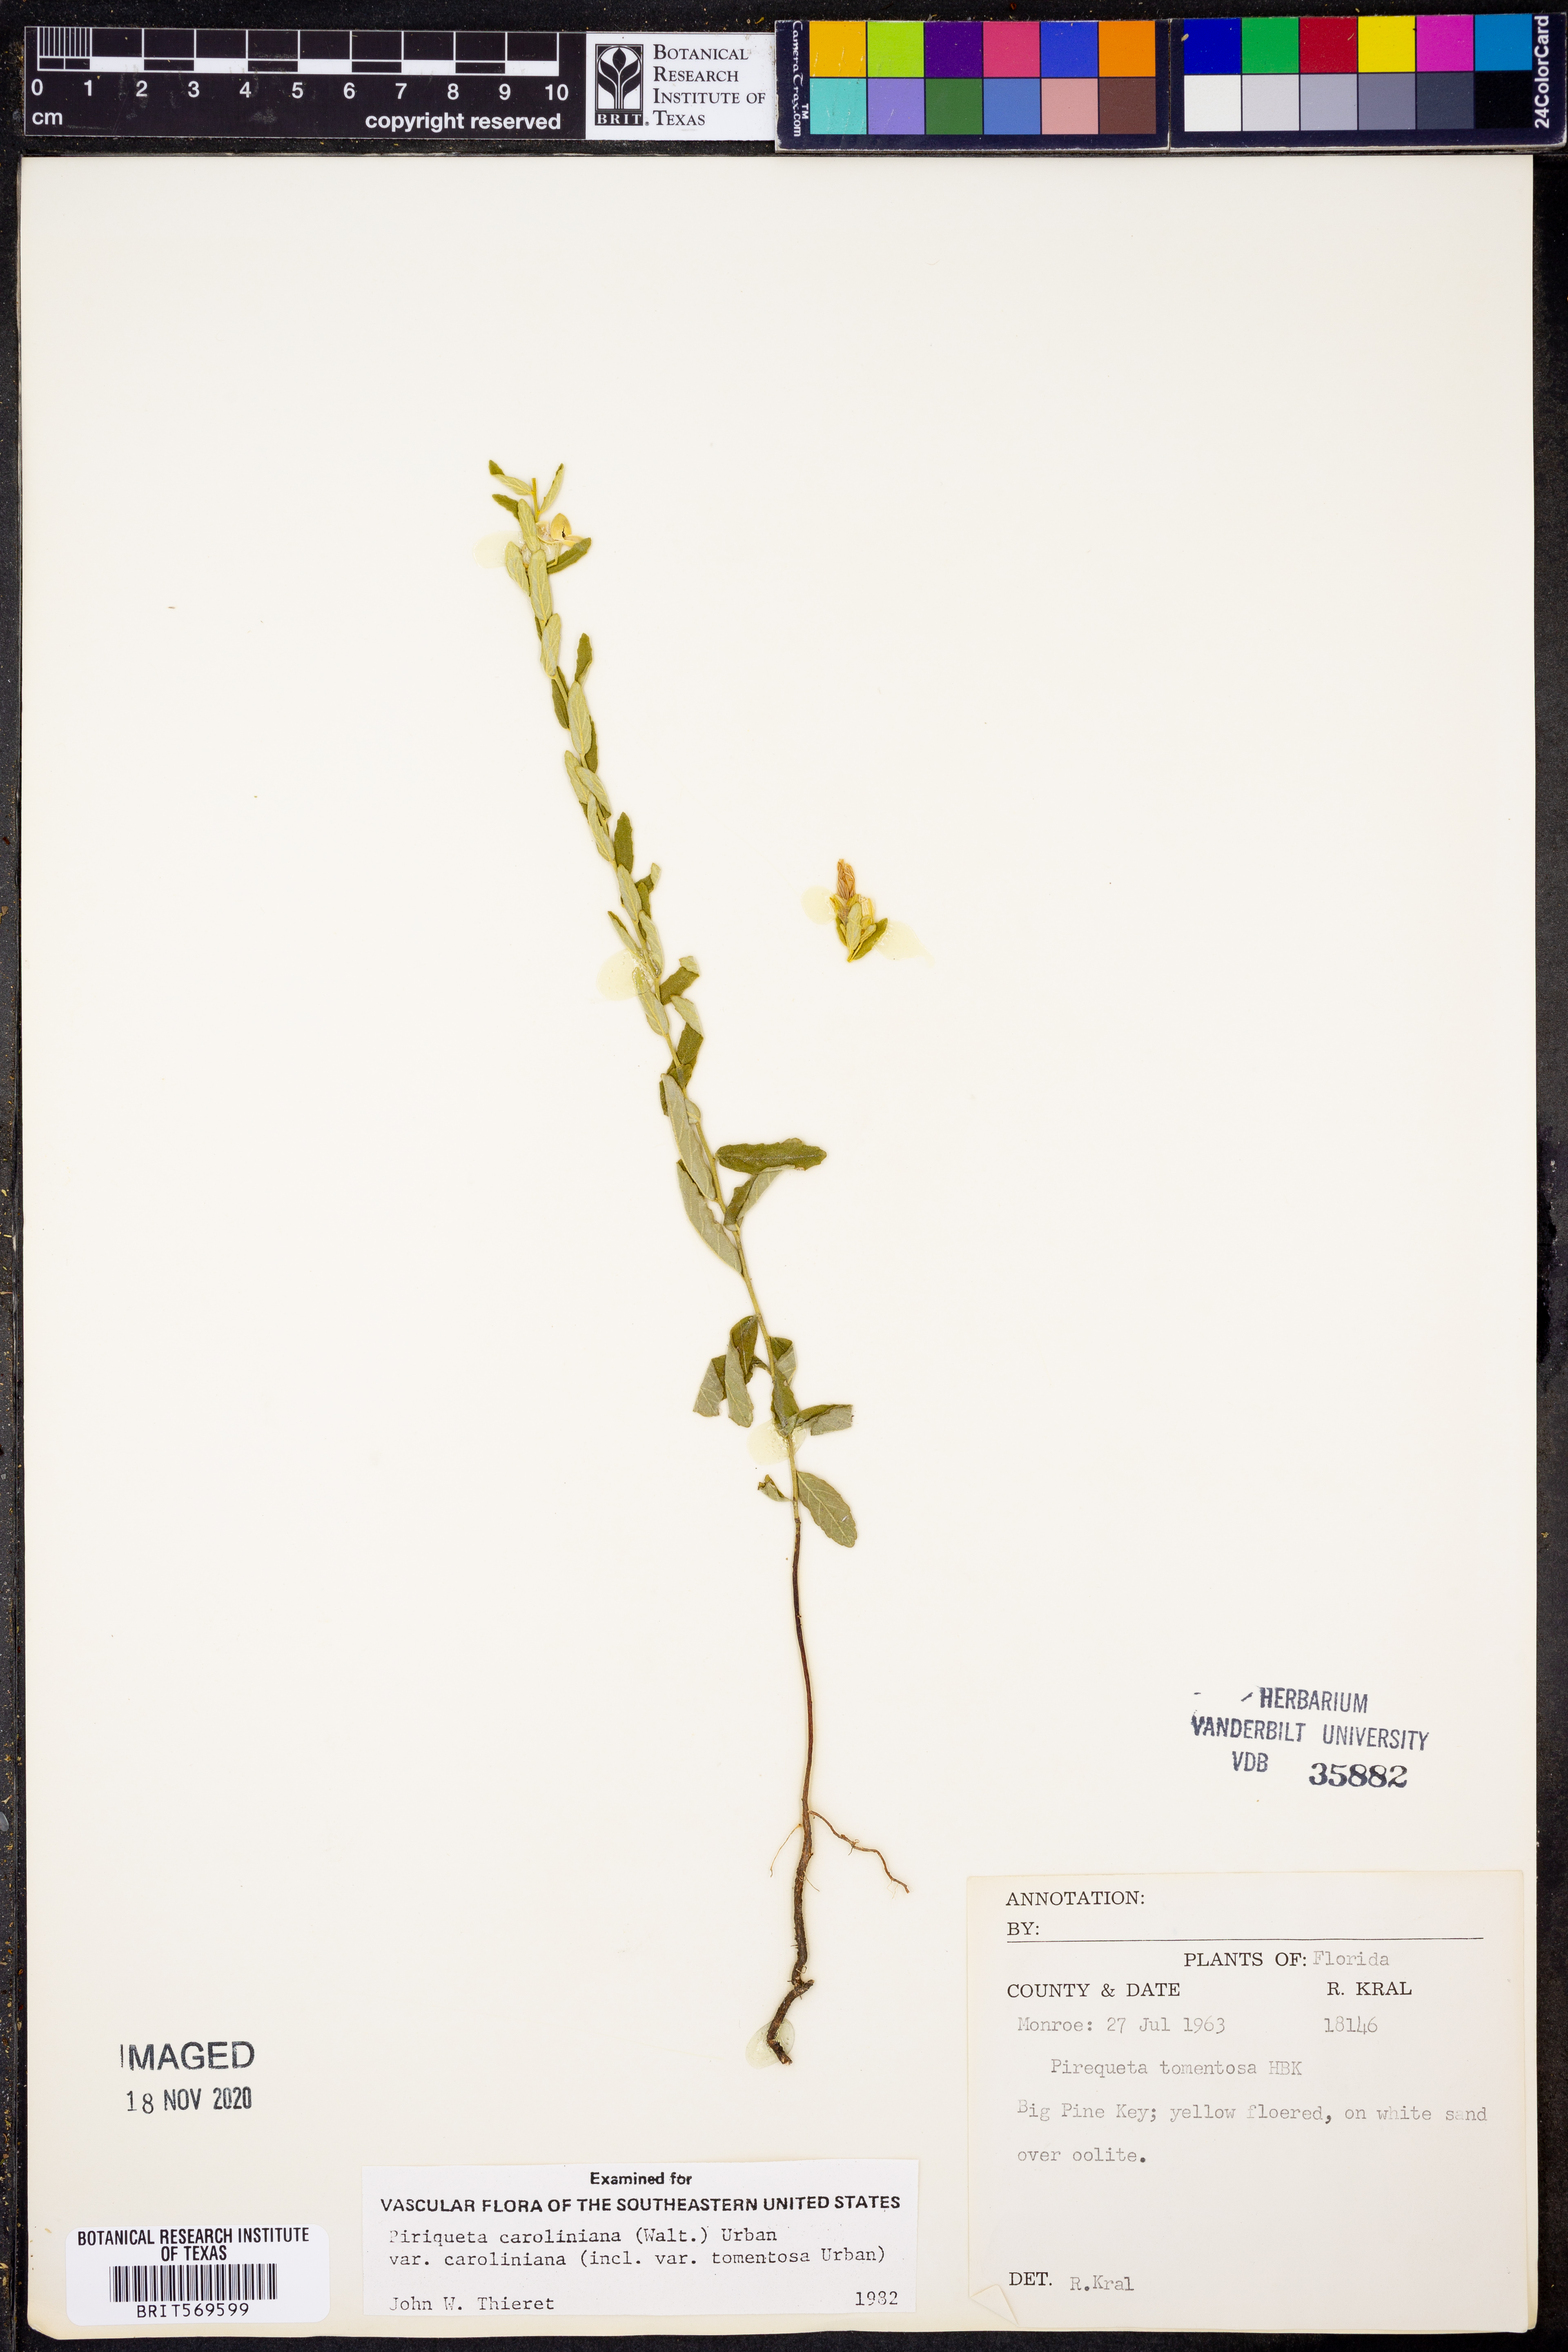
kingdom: Plantae
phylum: Tracheophyta
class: Magnoliopsida
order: Malpighiales
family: Turneraceae
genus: Piriqueta
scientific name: Piriqueta cistoides
